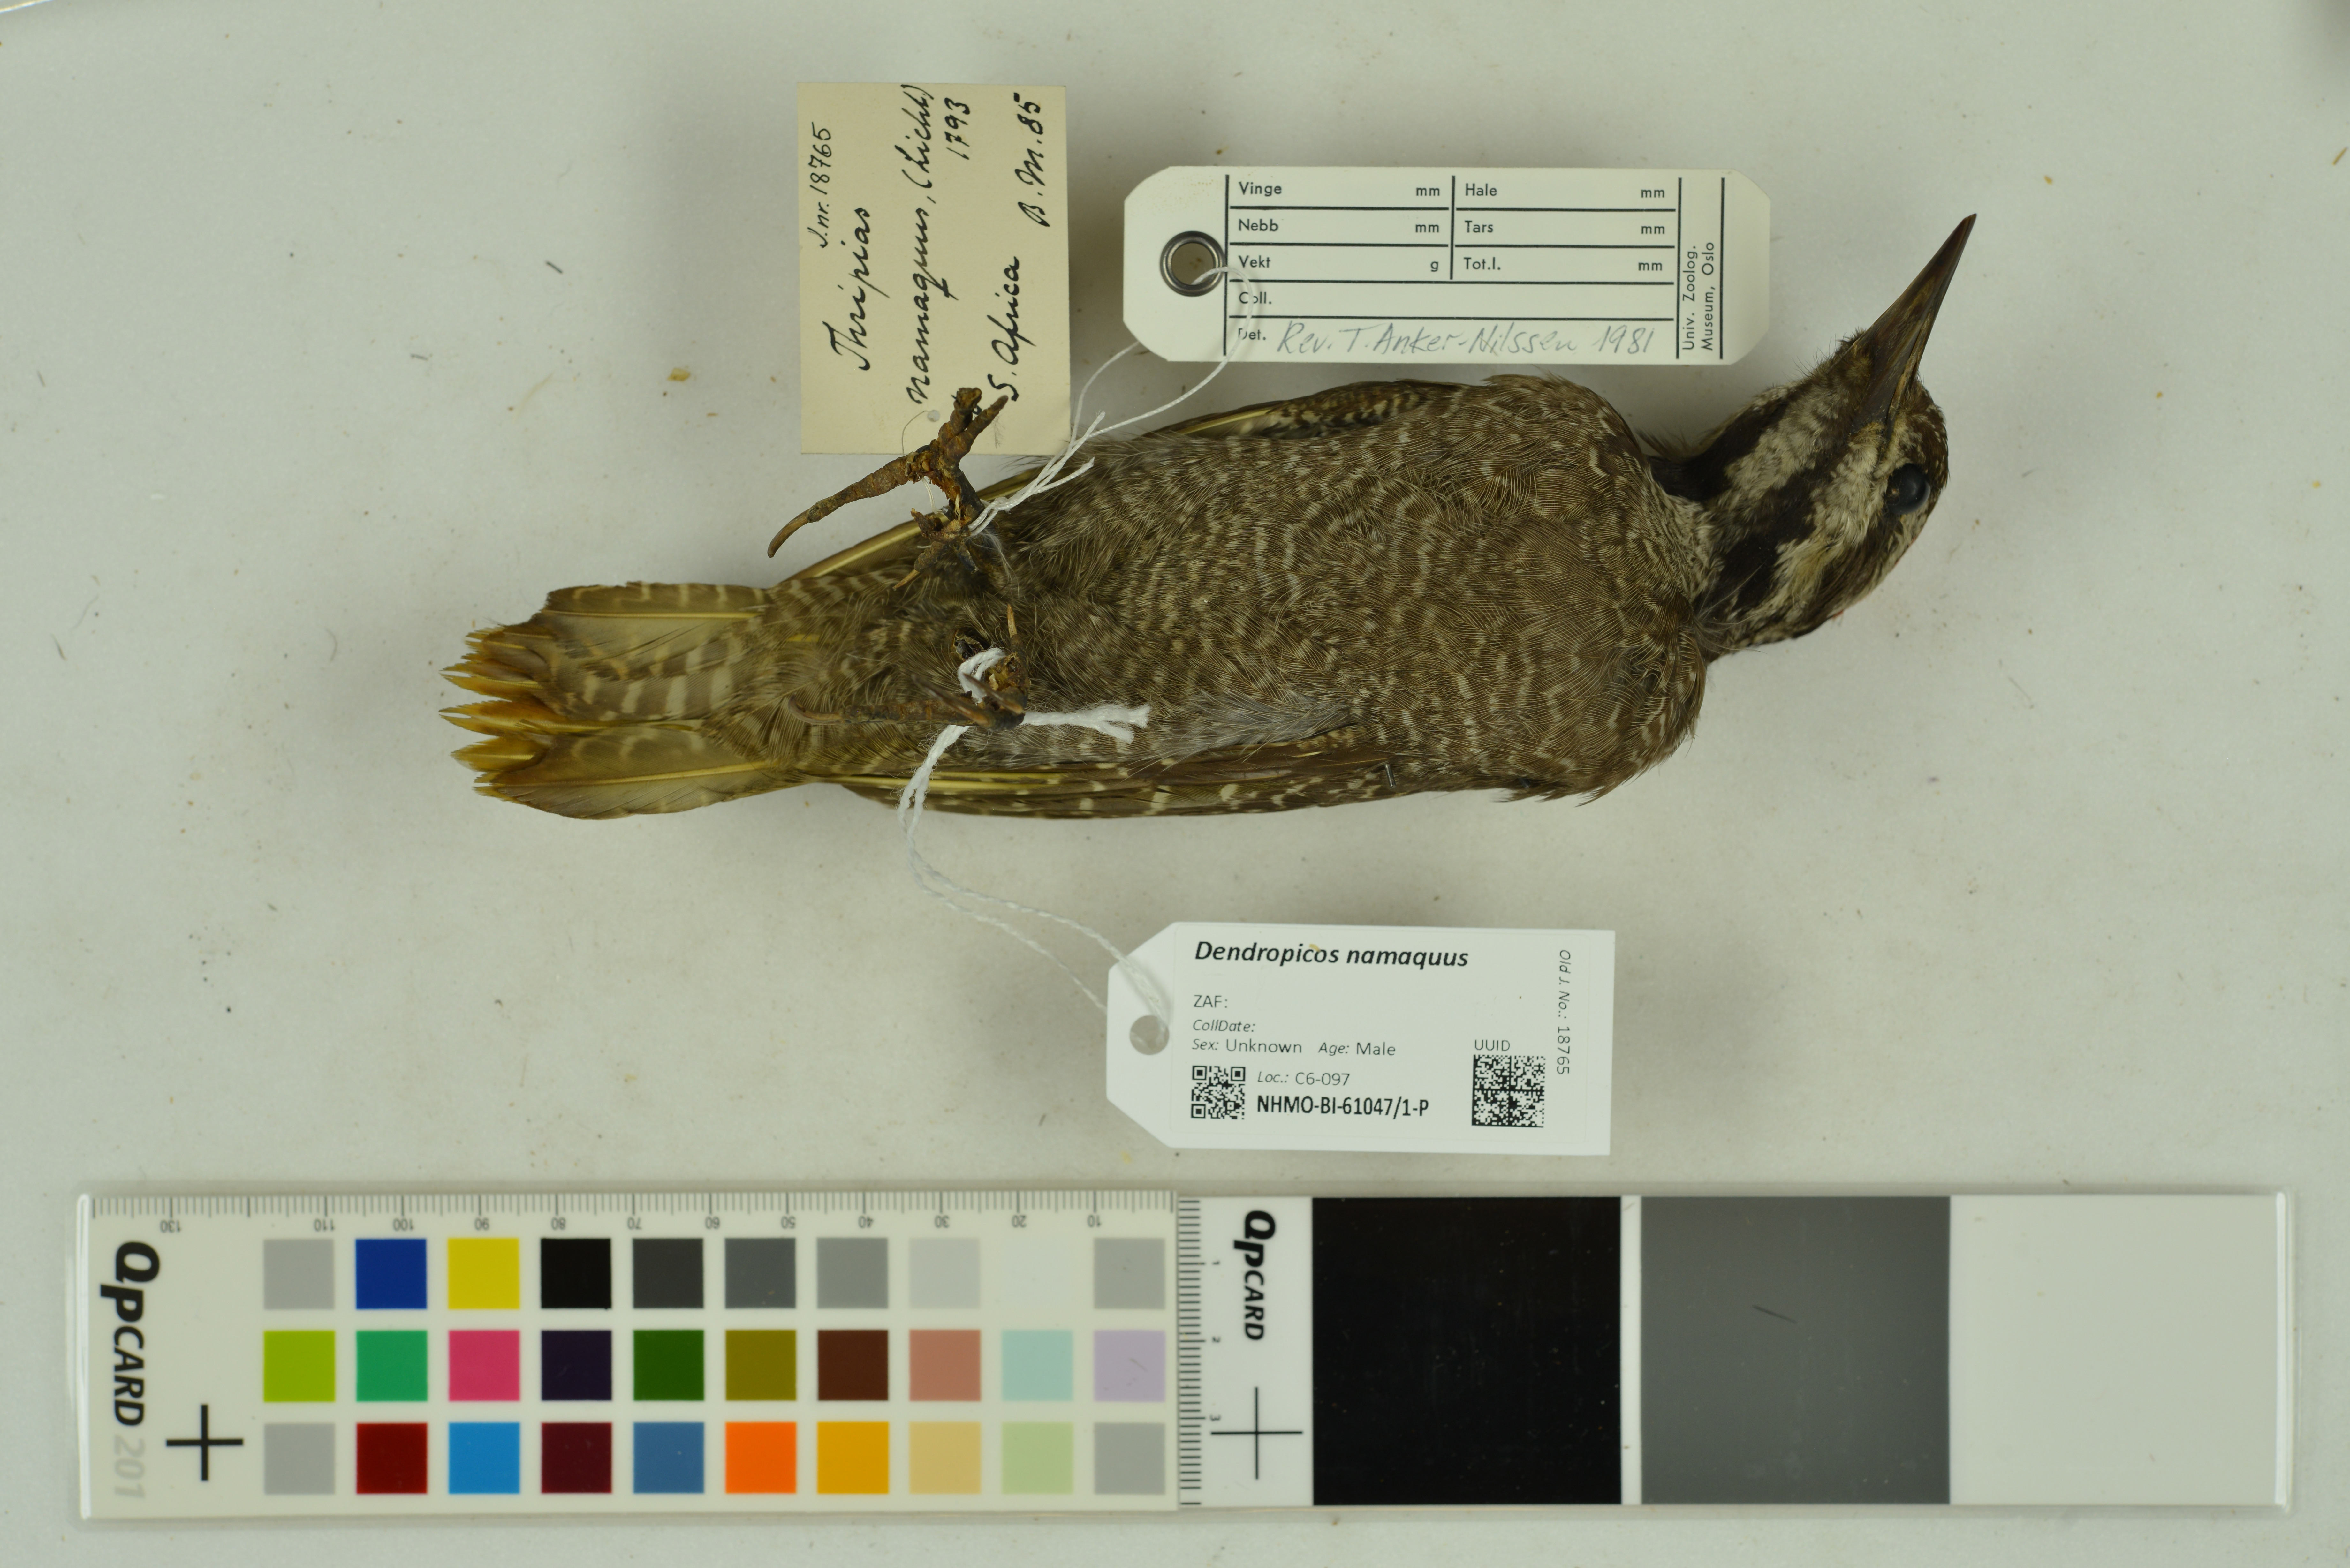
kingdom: Animalia
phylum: Chordata
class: Aves
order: Piciformes
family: Picidae
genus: Chloropicus
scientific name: Chloropicus namaquus
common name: Bearded woodpecker
